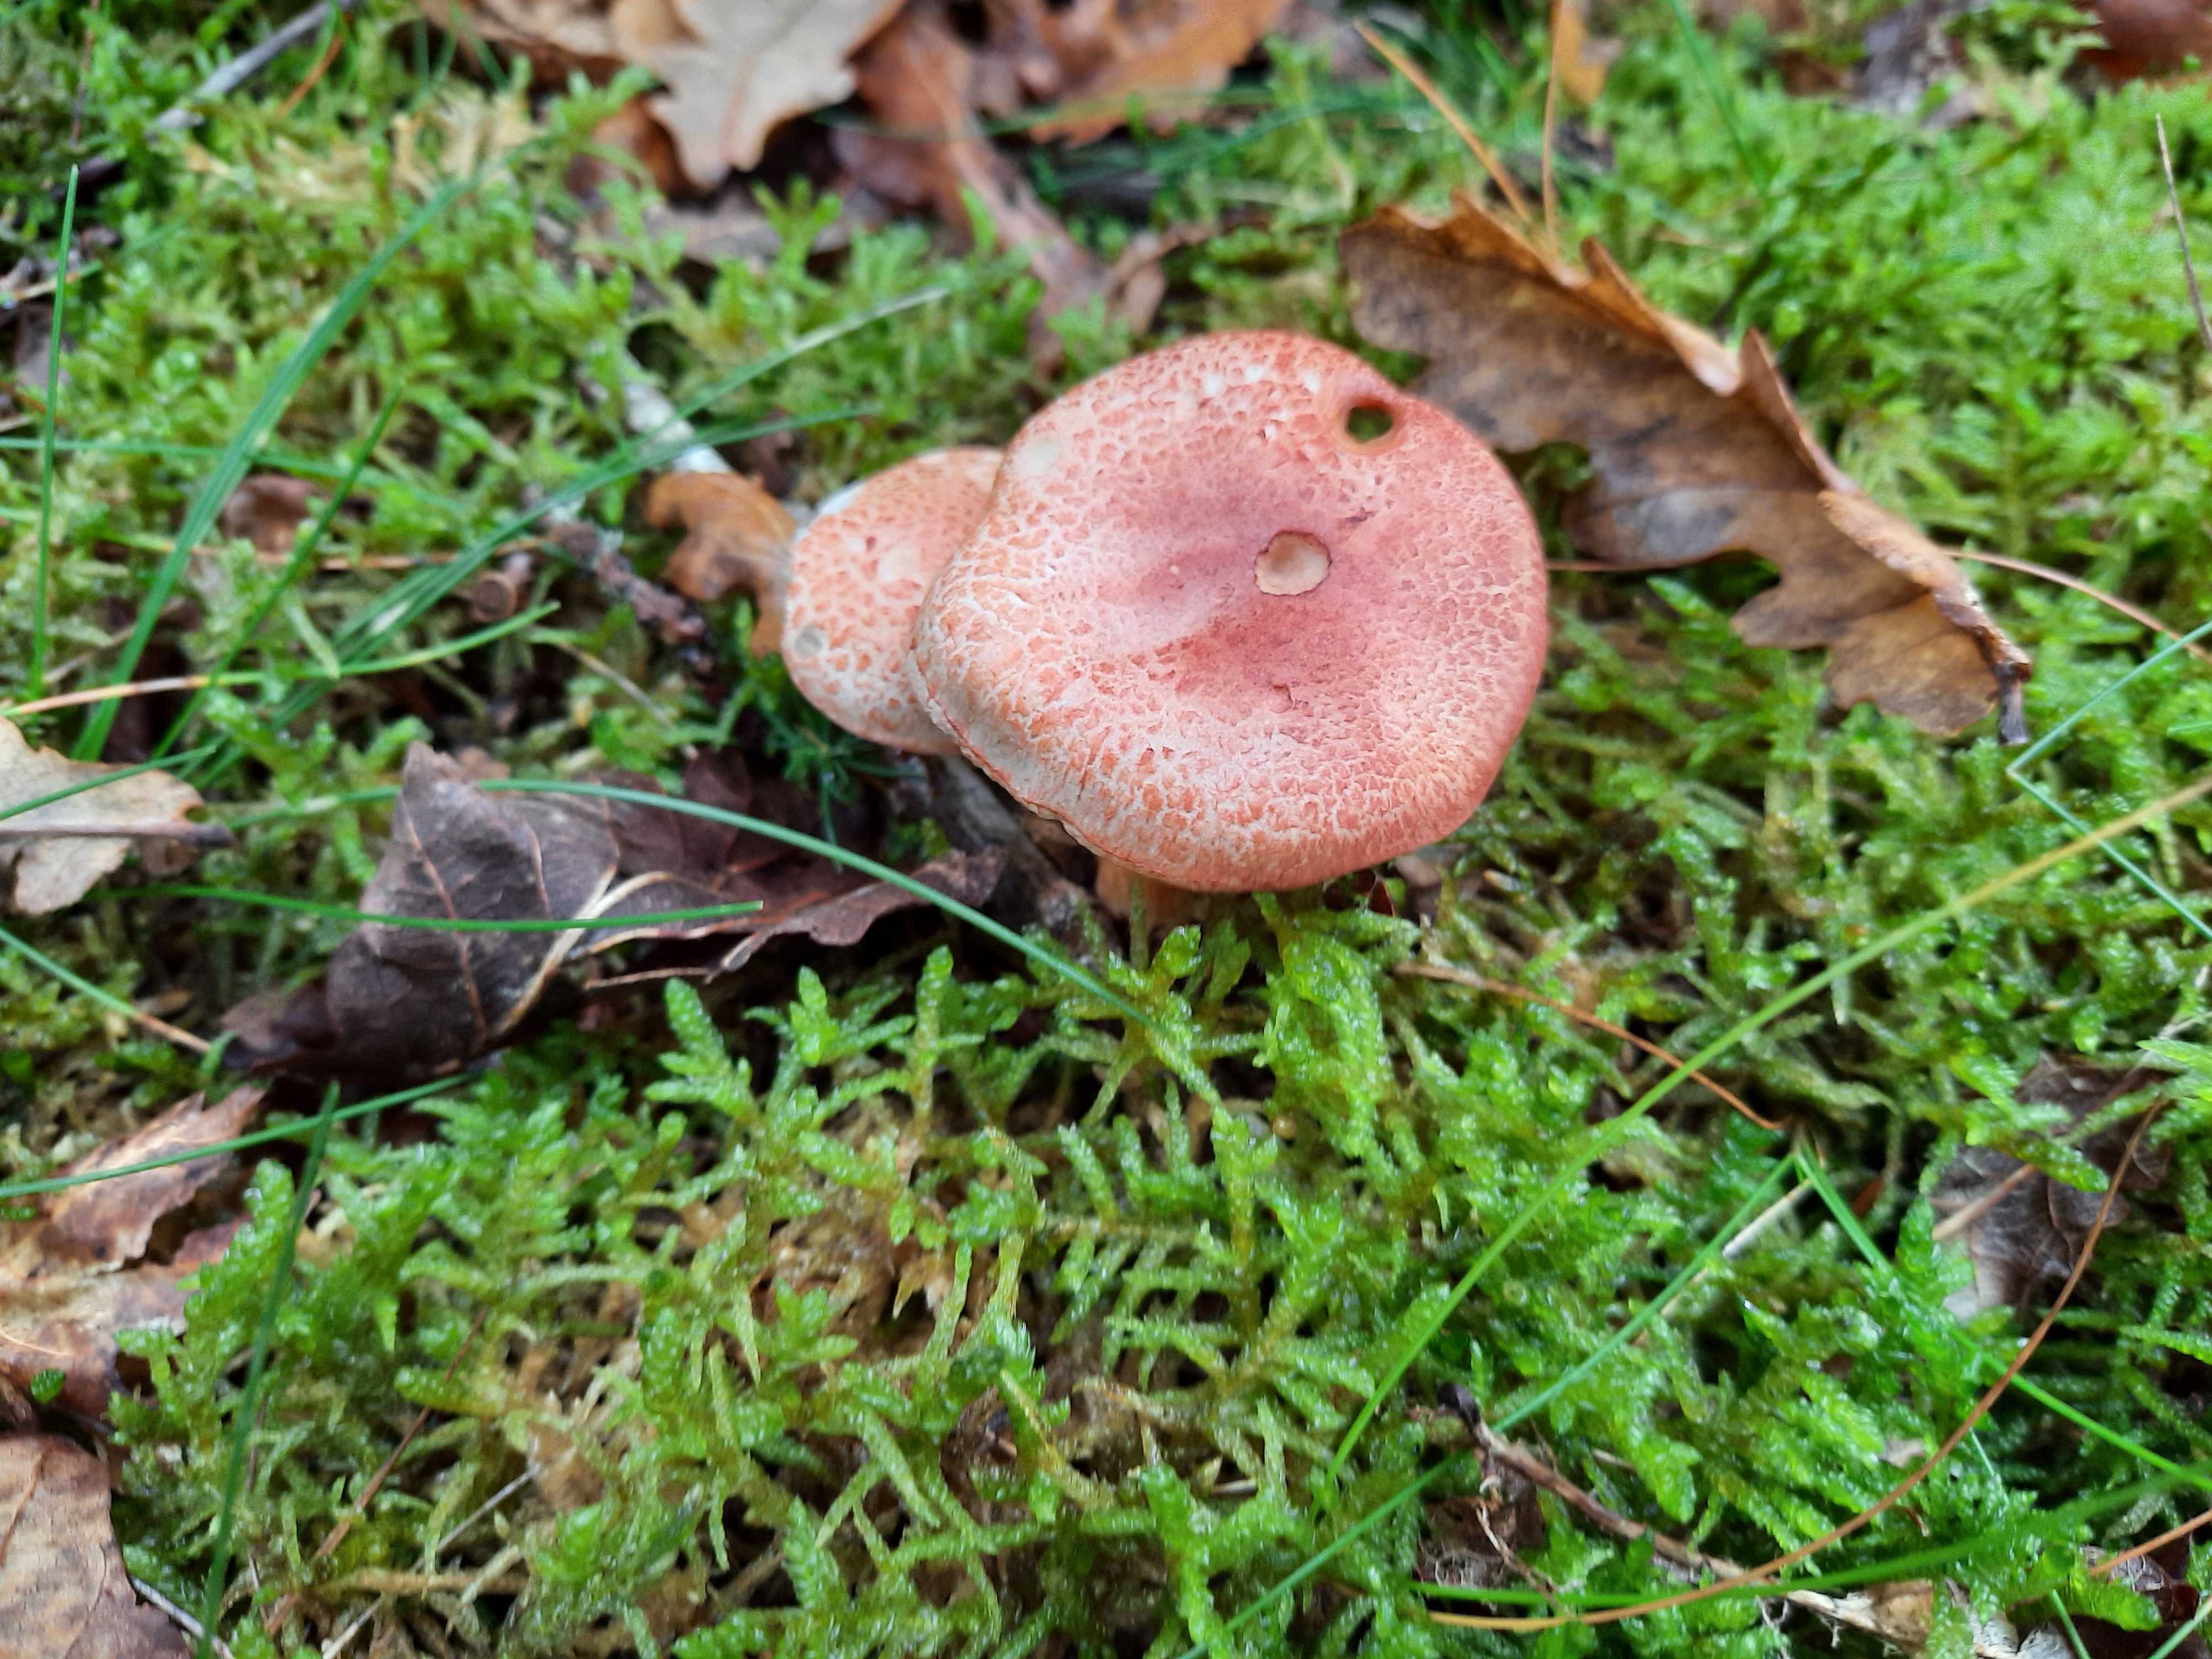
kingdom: Fungi
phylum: Basidiomycota
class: Agaricomycetes
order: Agaricales
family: Cortinariaceae
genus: Cortinarius
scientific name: Cortinarius bolaris
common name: cinnoberskællet slørhat
